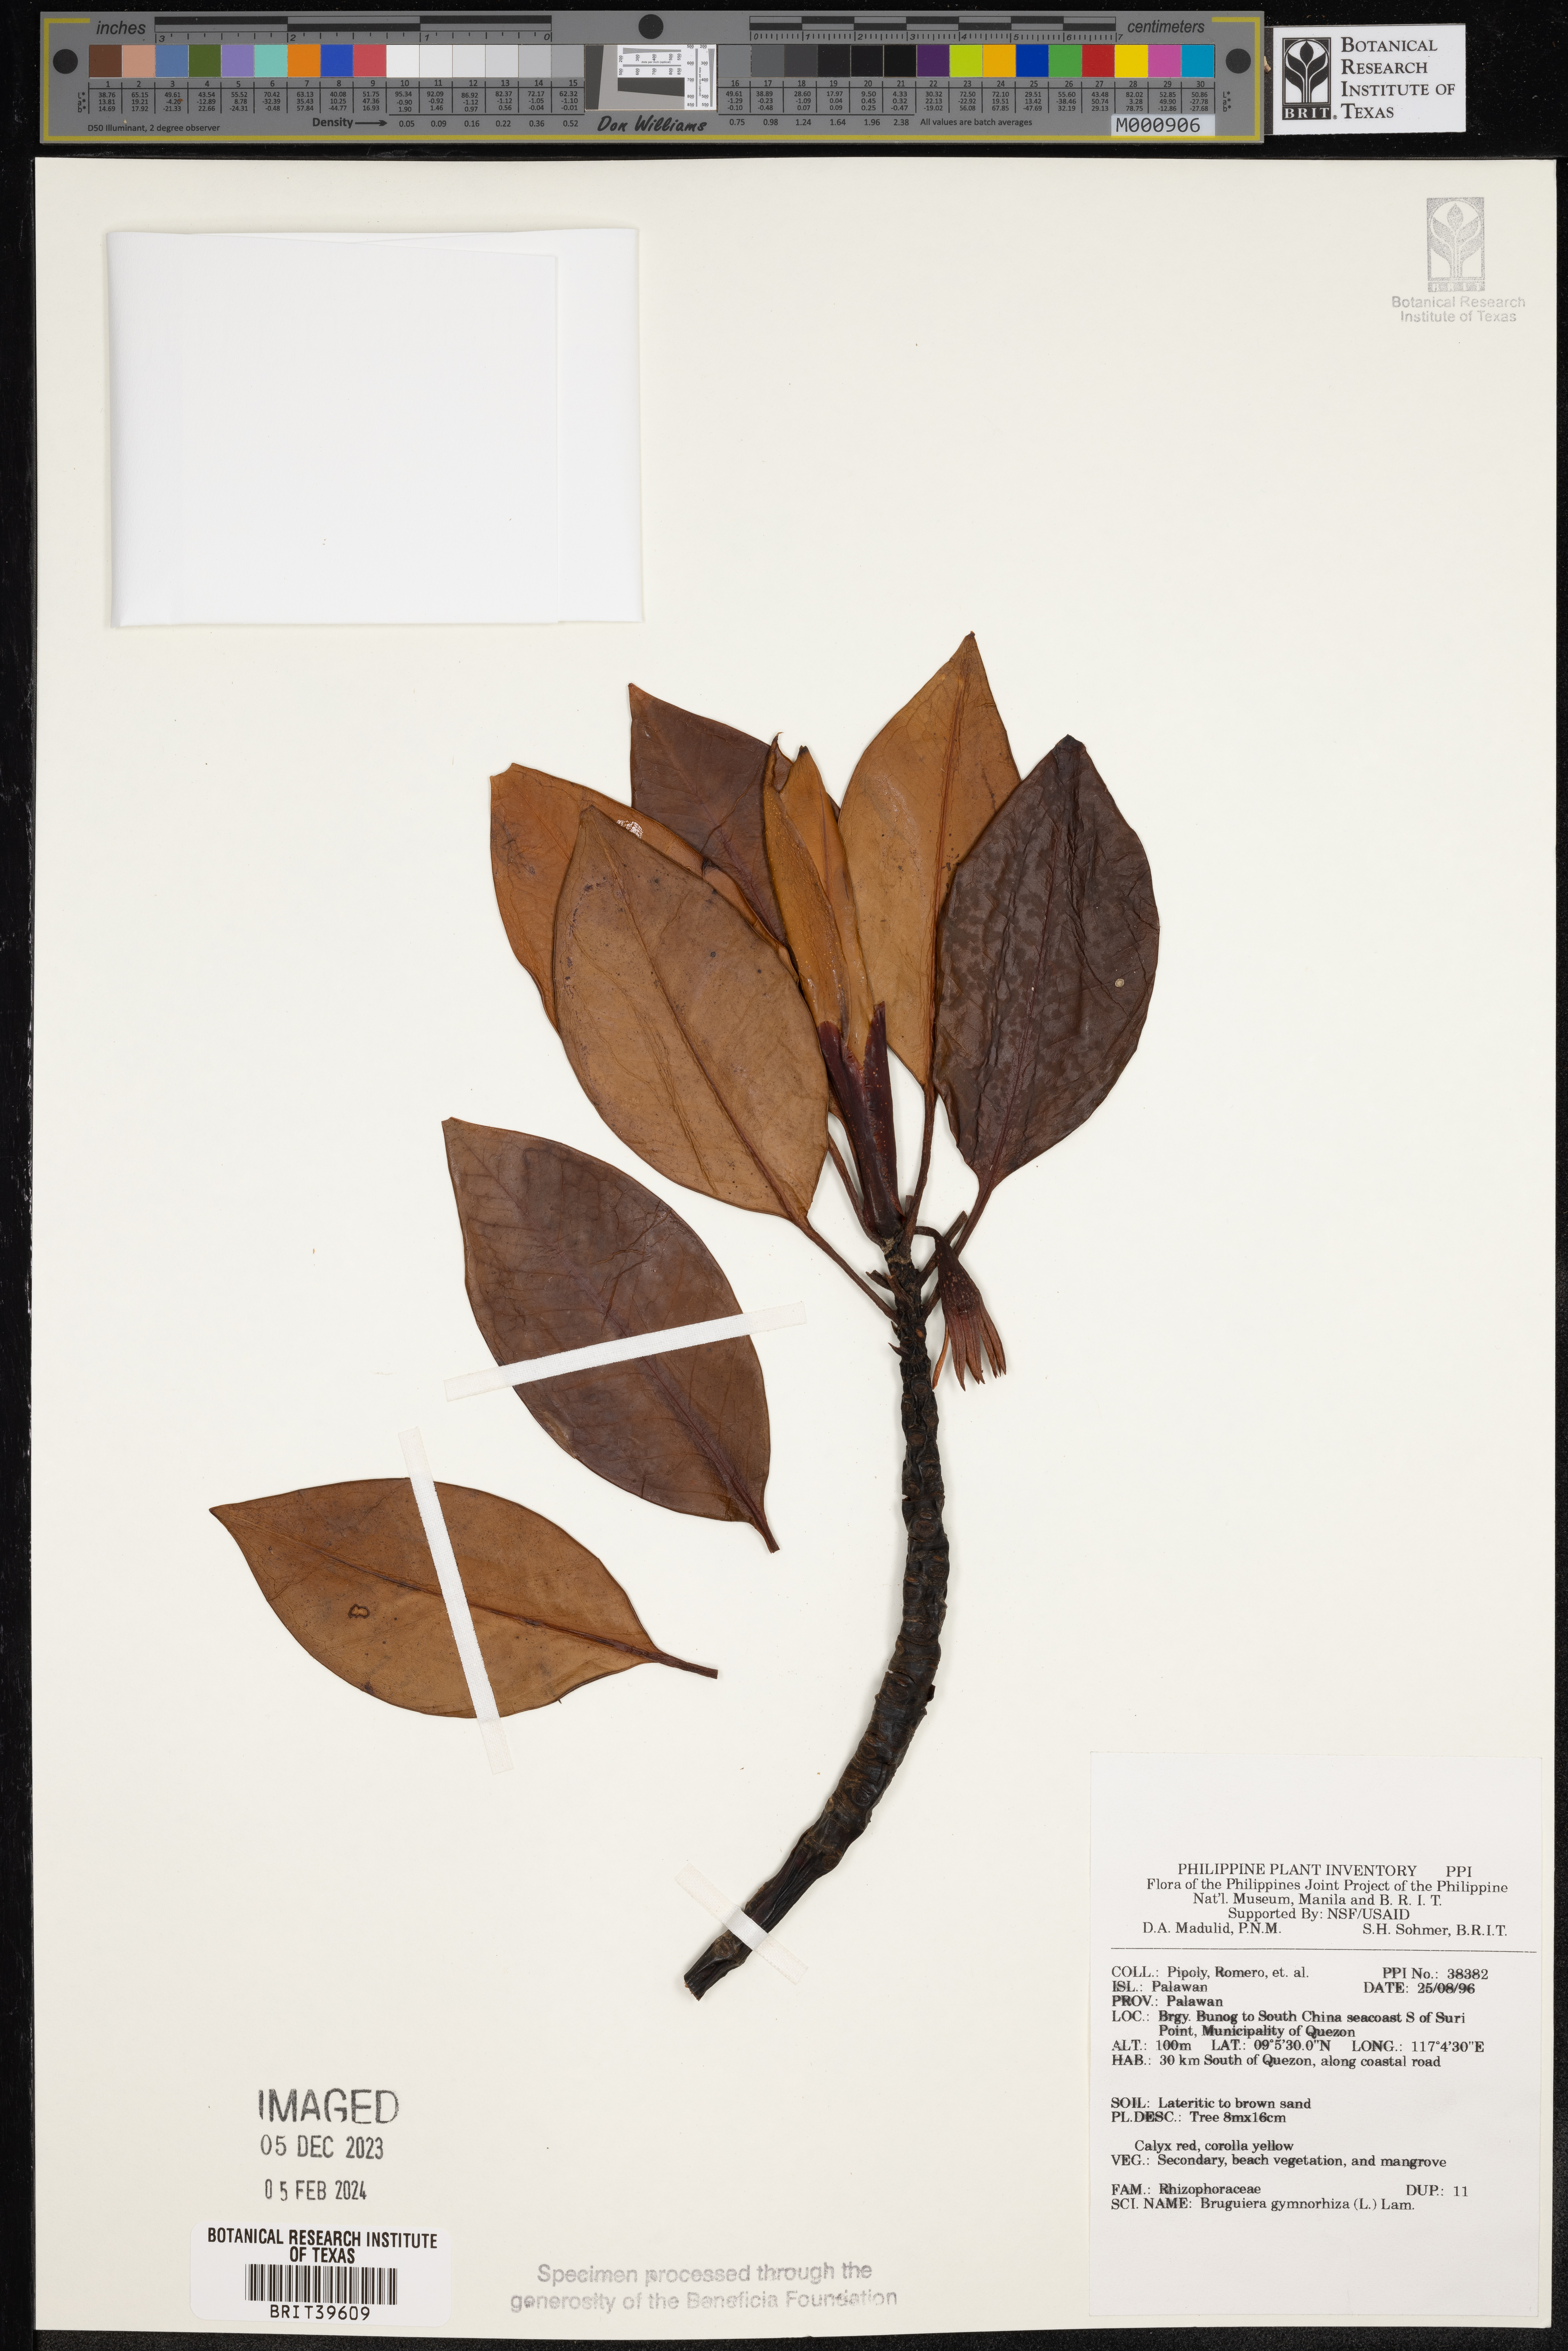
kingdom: Plantae
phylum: Tracheophyta
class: Magnoliopsida
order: Malpighiales
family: Rhizophoraceae
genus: Bruguiera
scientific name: Bruguiera gymnorhiza
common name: Oriental mangrove
